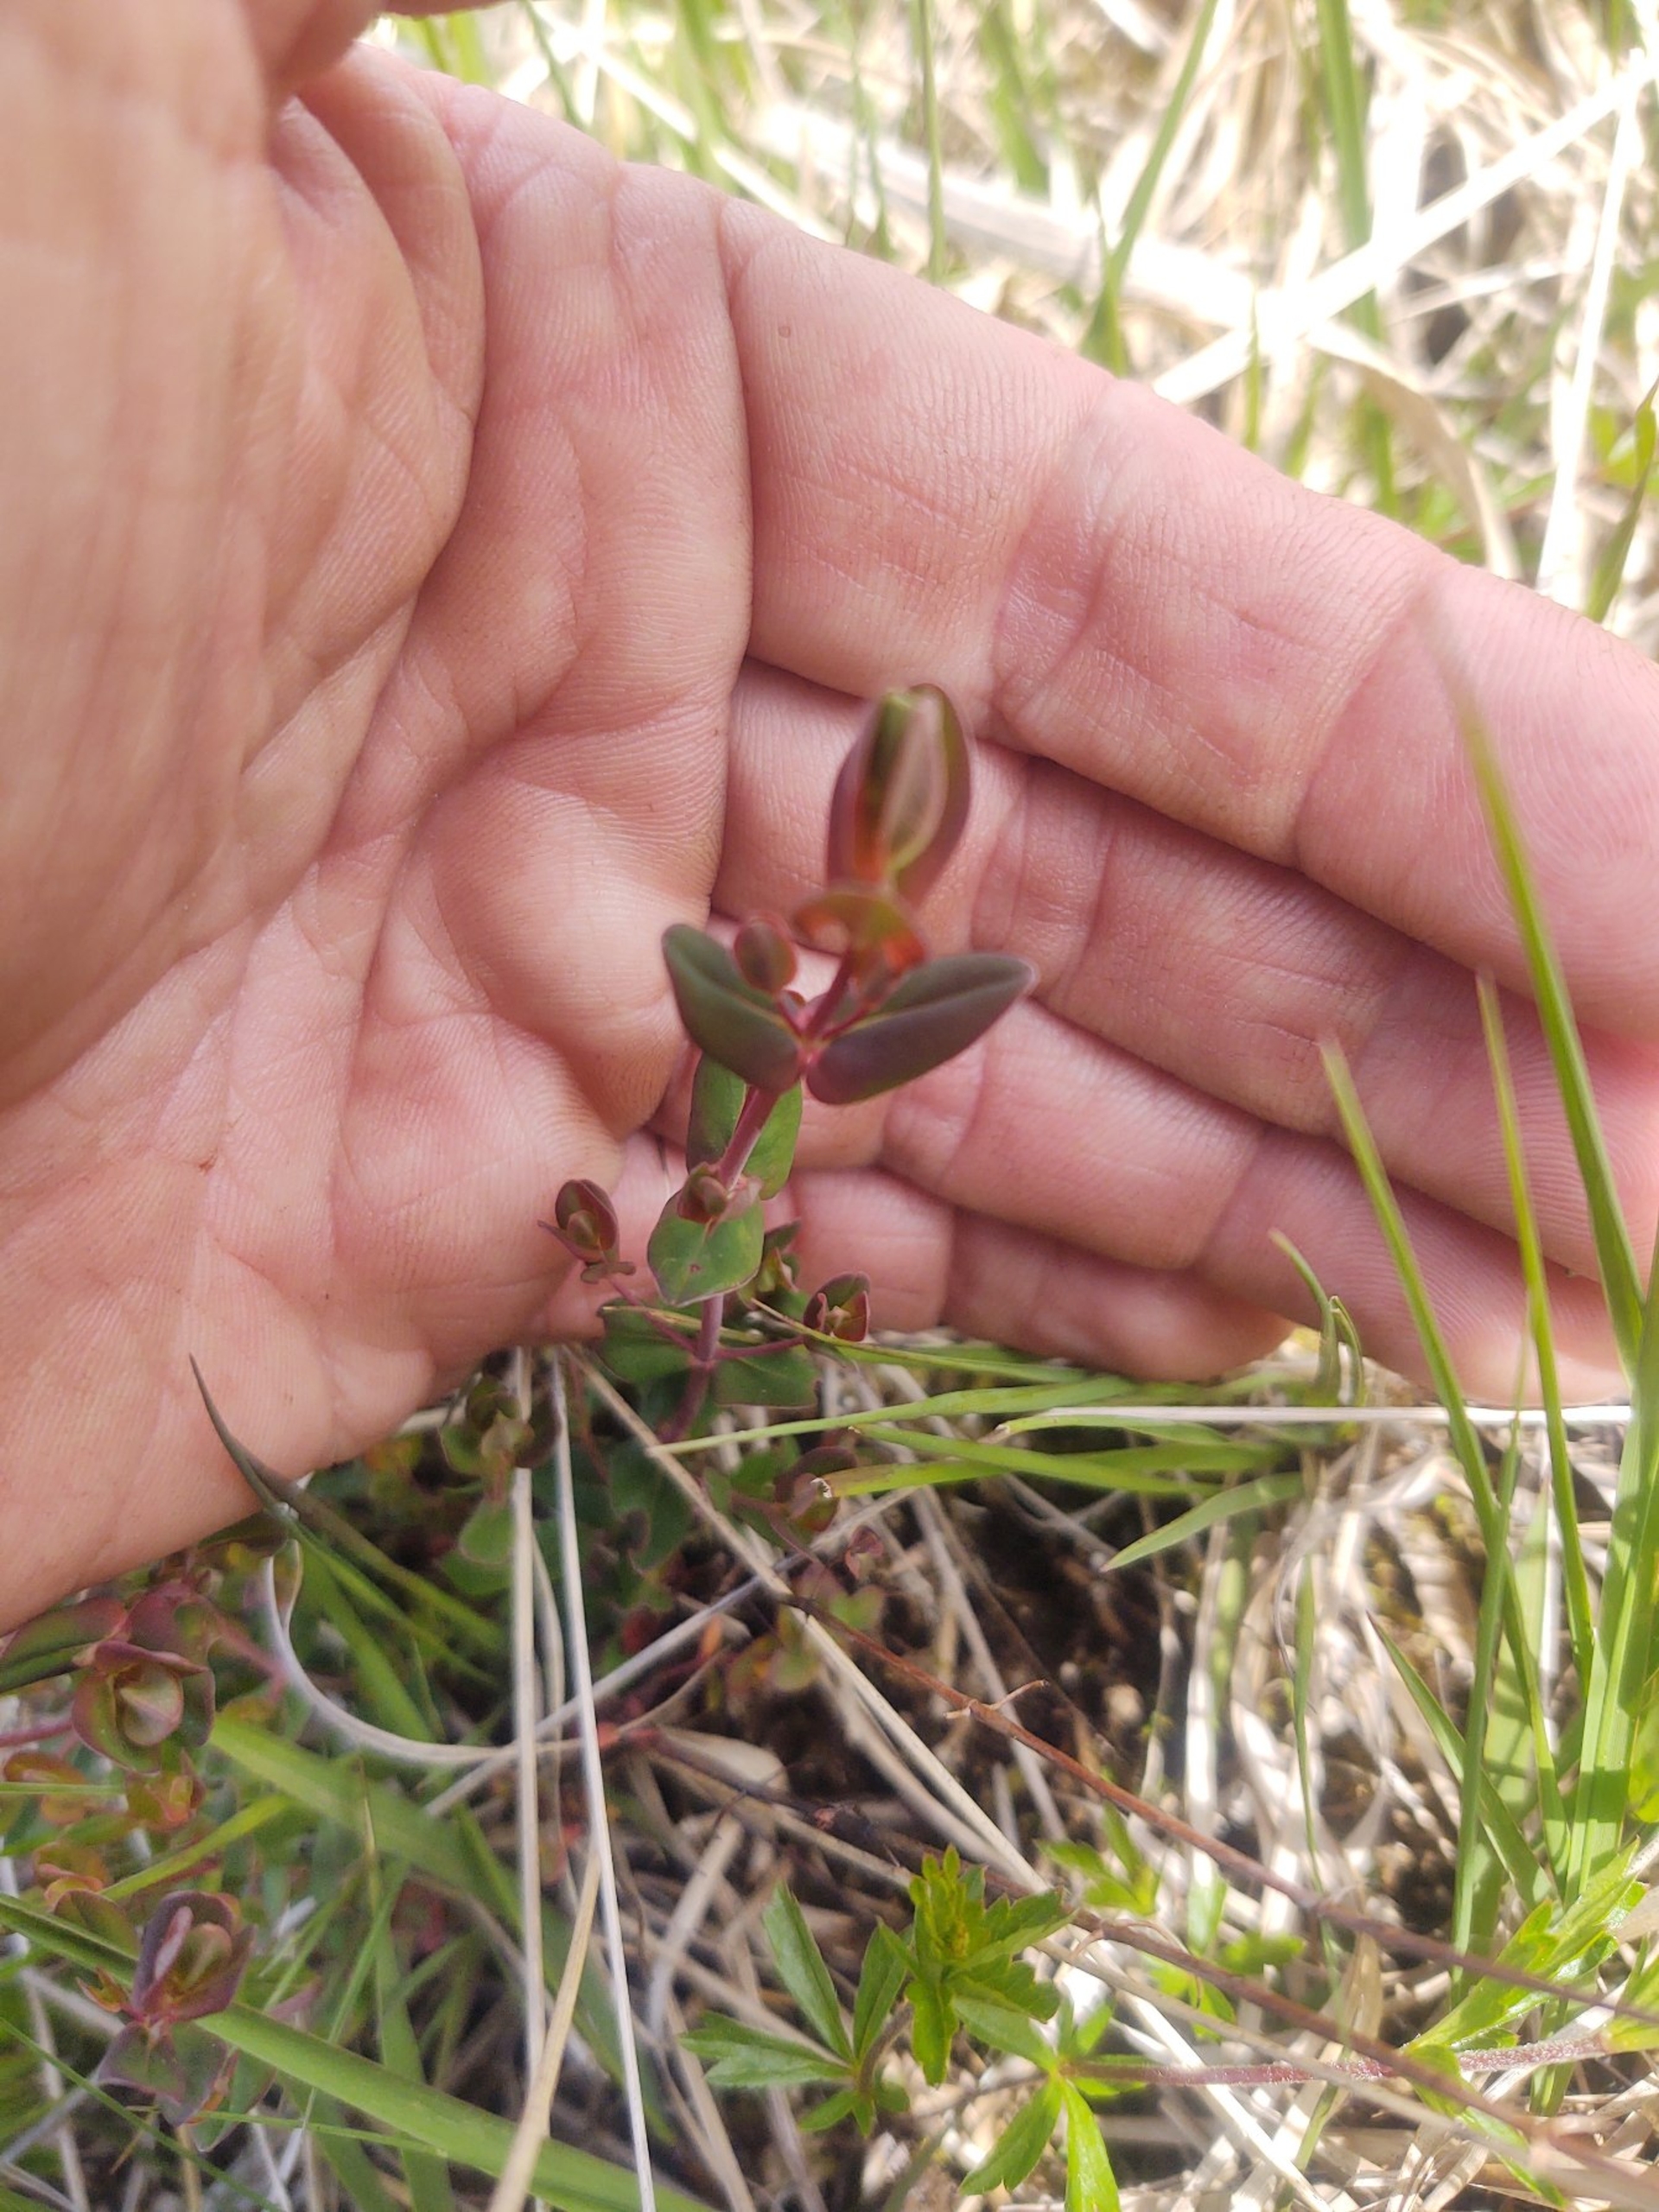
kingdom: Plantae
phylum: Tracheophyta
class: Magnoliopsida
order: Malpighiales
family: Hypericaceae
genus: Hypericum
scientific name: Hypericum pulchrum
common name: Smuk perikon
